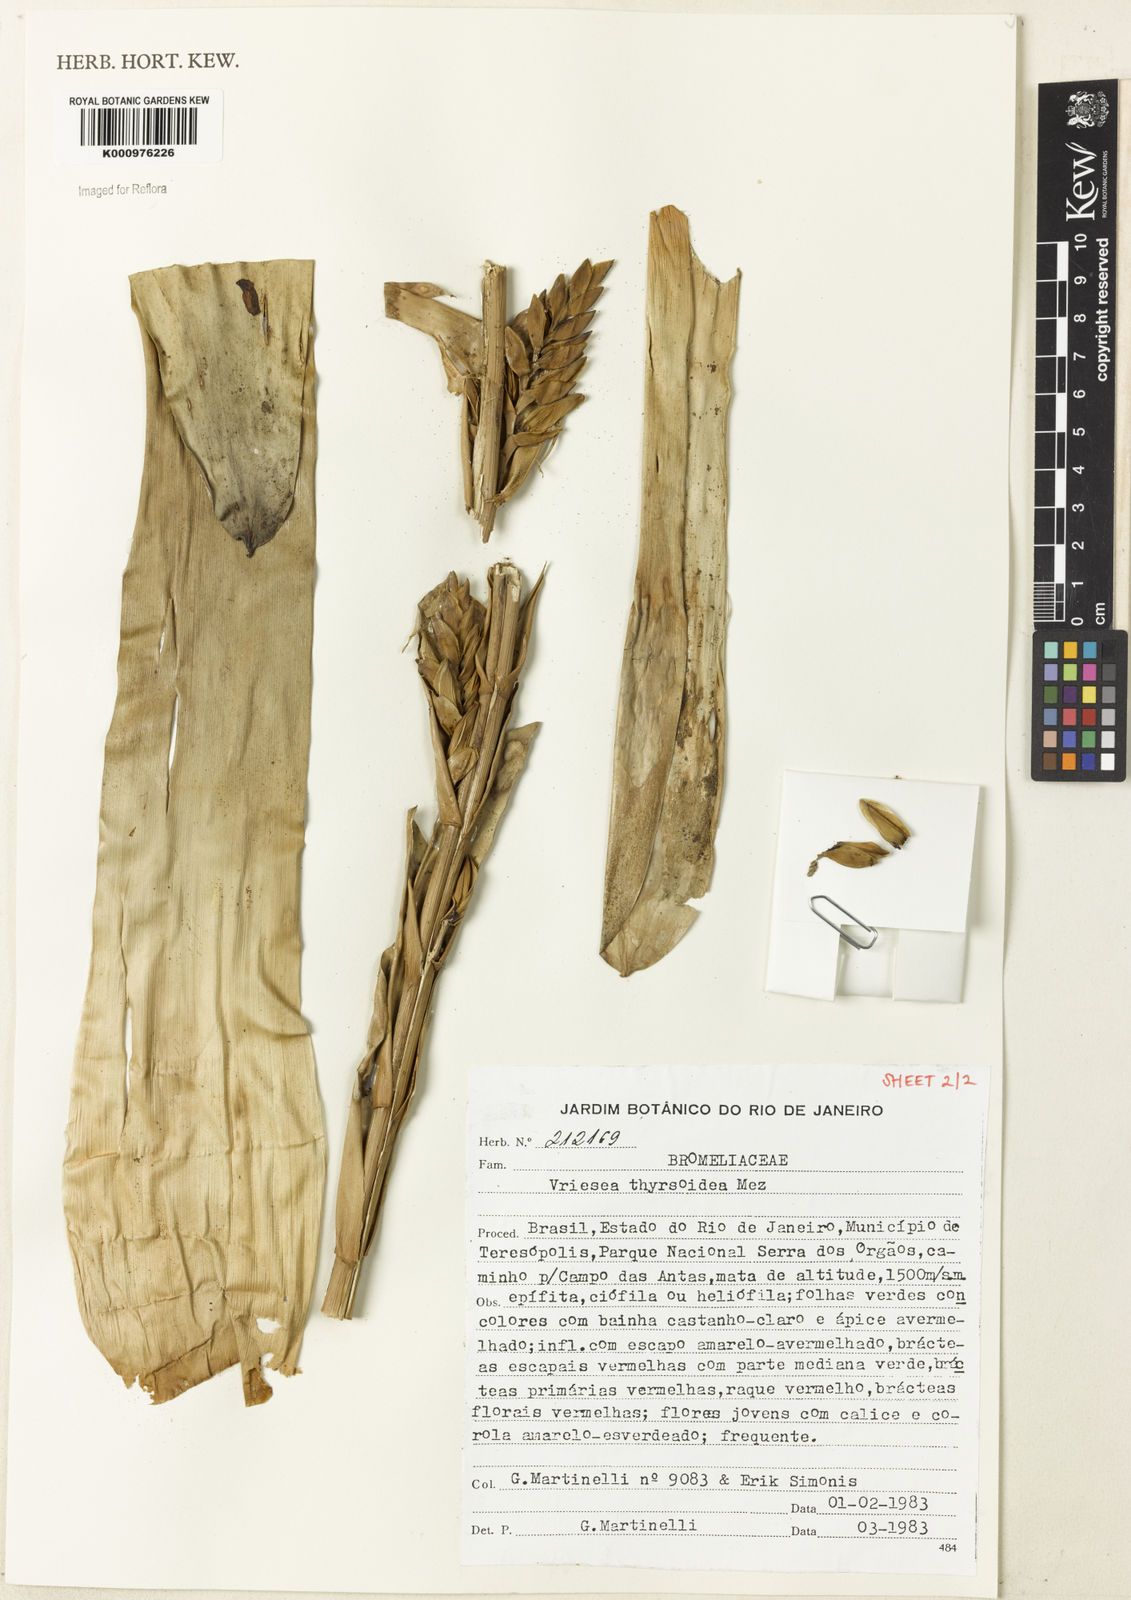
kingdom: Plantae
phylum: Tracheophyta
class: Liliopsida
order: Poales
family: Bromeliaceae
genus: Vriesea
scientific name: Vriesea
